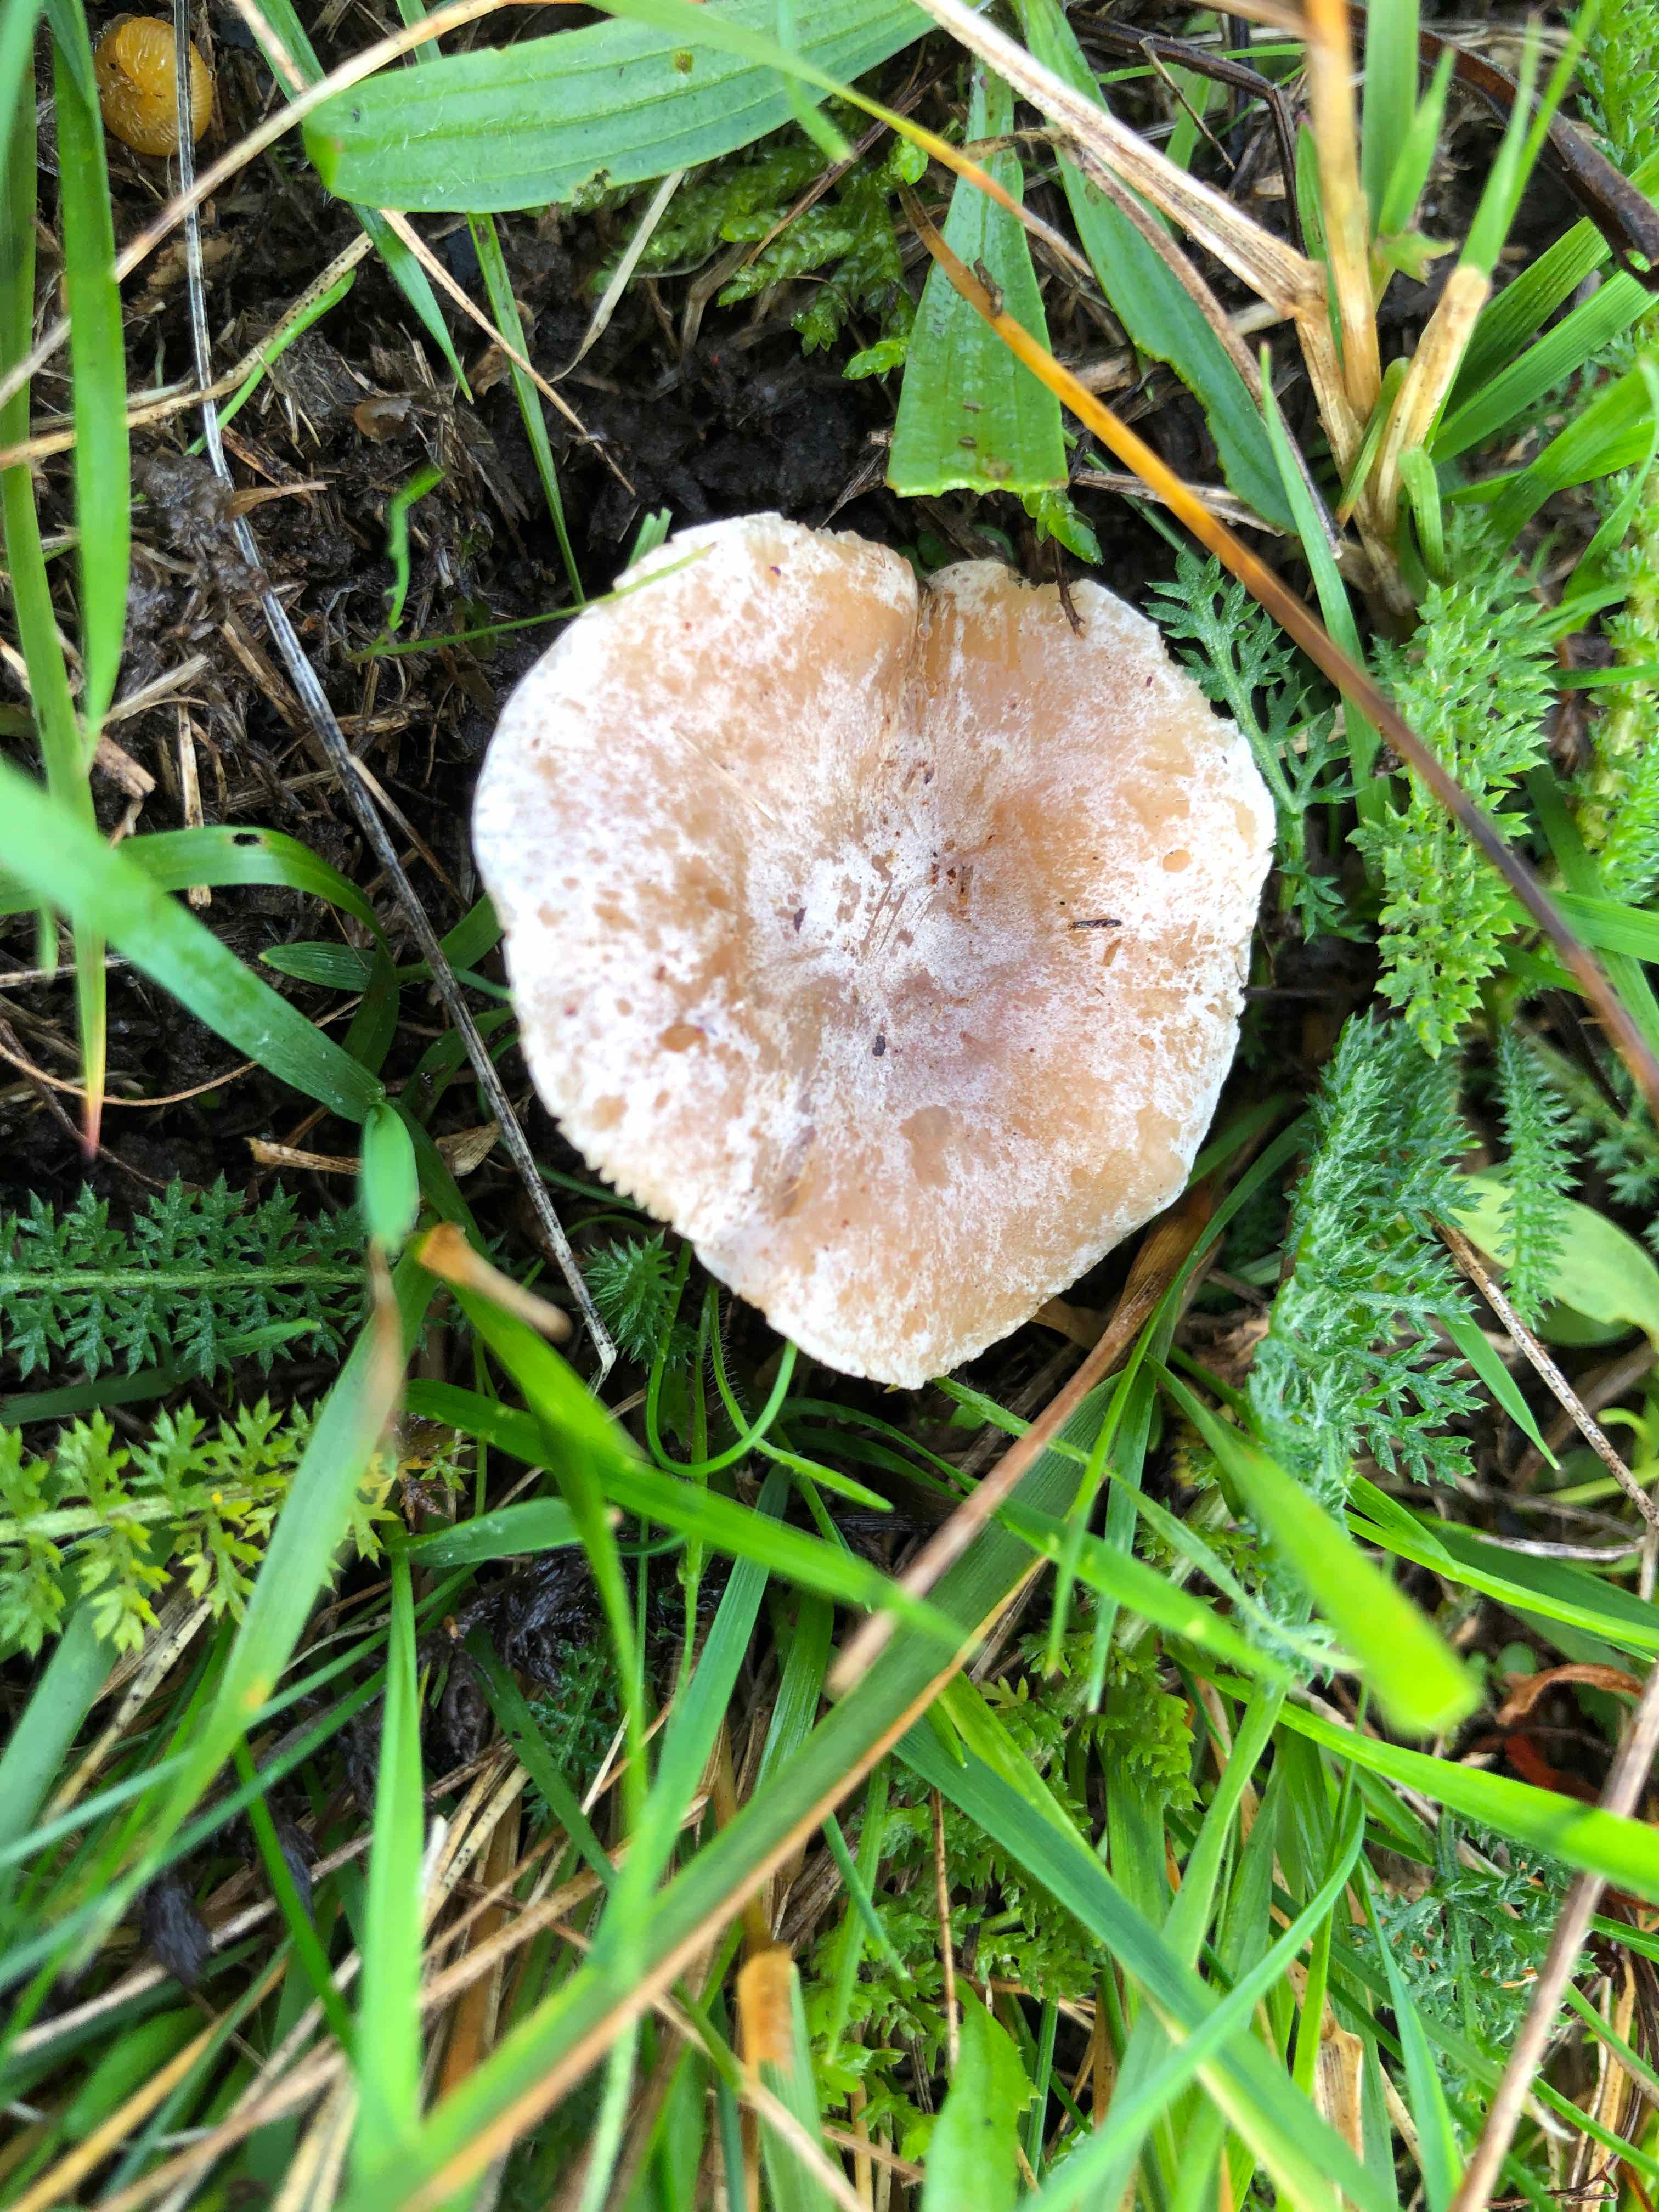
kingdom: Fungi
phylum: Basidiomycota
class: Agaricomycetes
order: Agaricales
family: Tricholomataceae
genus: Clitocybe
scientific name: Clitocybe rivulosa
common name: eng-tragthat
